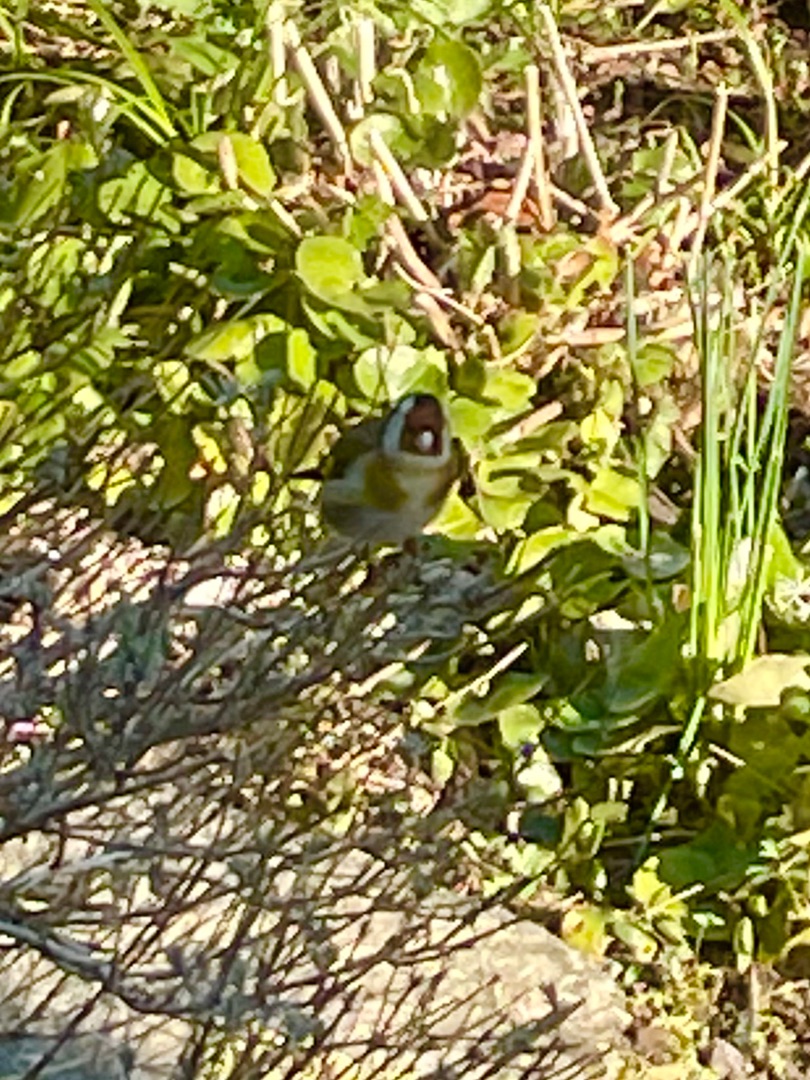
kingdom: Animalia
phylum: Chordata
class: Aves
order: Passeriformes
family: Fringillidae
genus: Carduelis
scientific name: Carduelis carduelis
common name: Stillits
